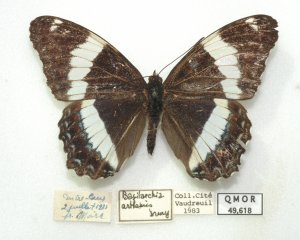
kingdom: Animalia
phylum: Arthropoda
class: Insecta
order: Lepidoptera
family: Nymphalidae
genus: Limenitis
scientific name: Limenitis arthemis
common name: Red-spotted Admiral
